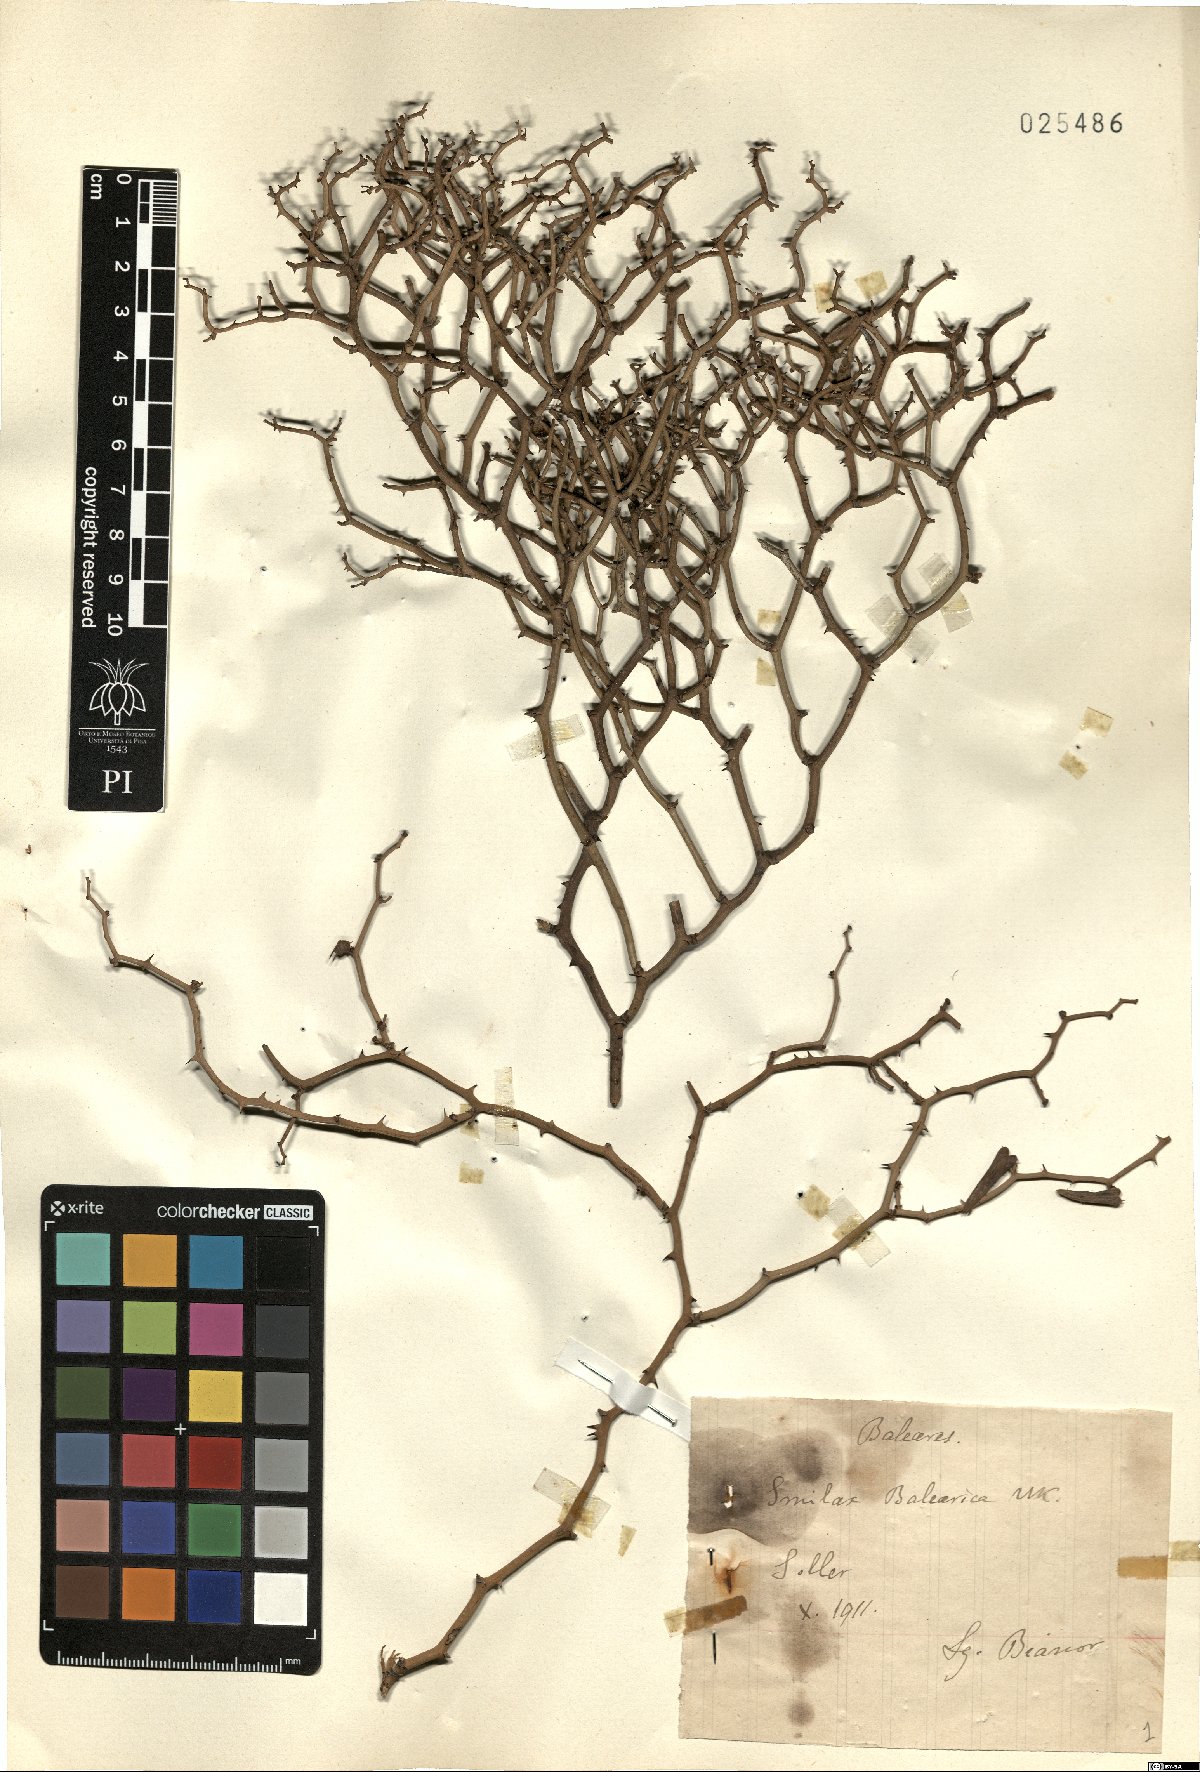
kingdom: Plantae
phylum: Tracheophyta
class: Liliopsida
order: Liliales
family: Smilacaceae
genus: Smilax
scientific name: Smilax aspera
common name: Common smilax
